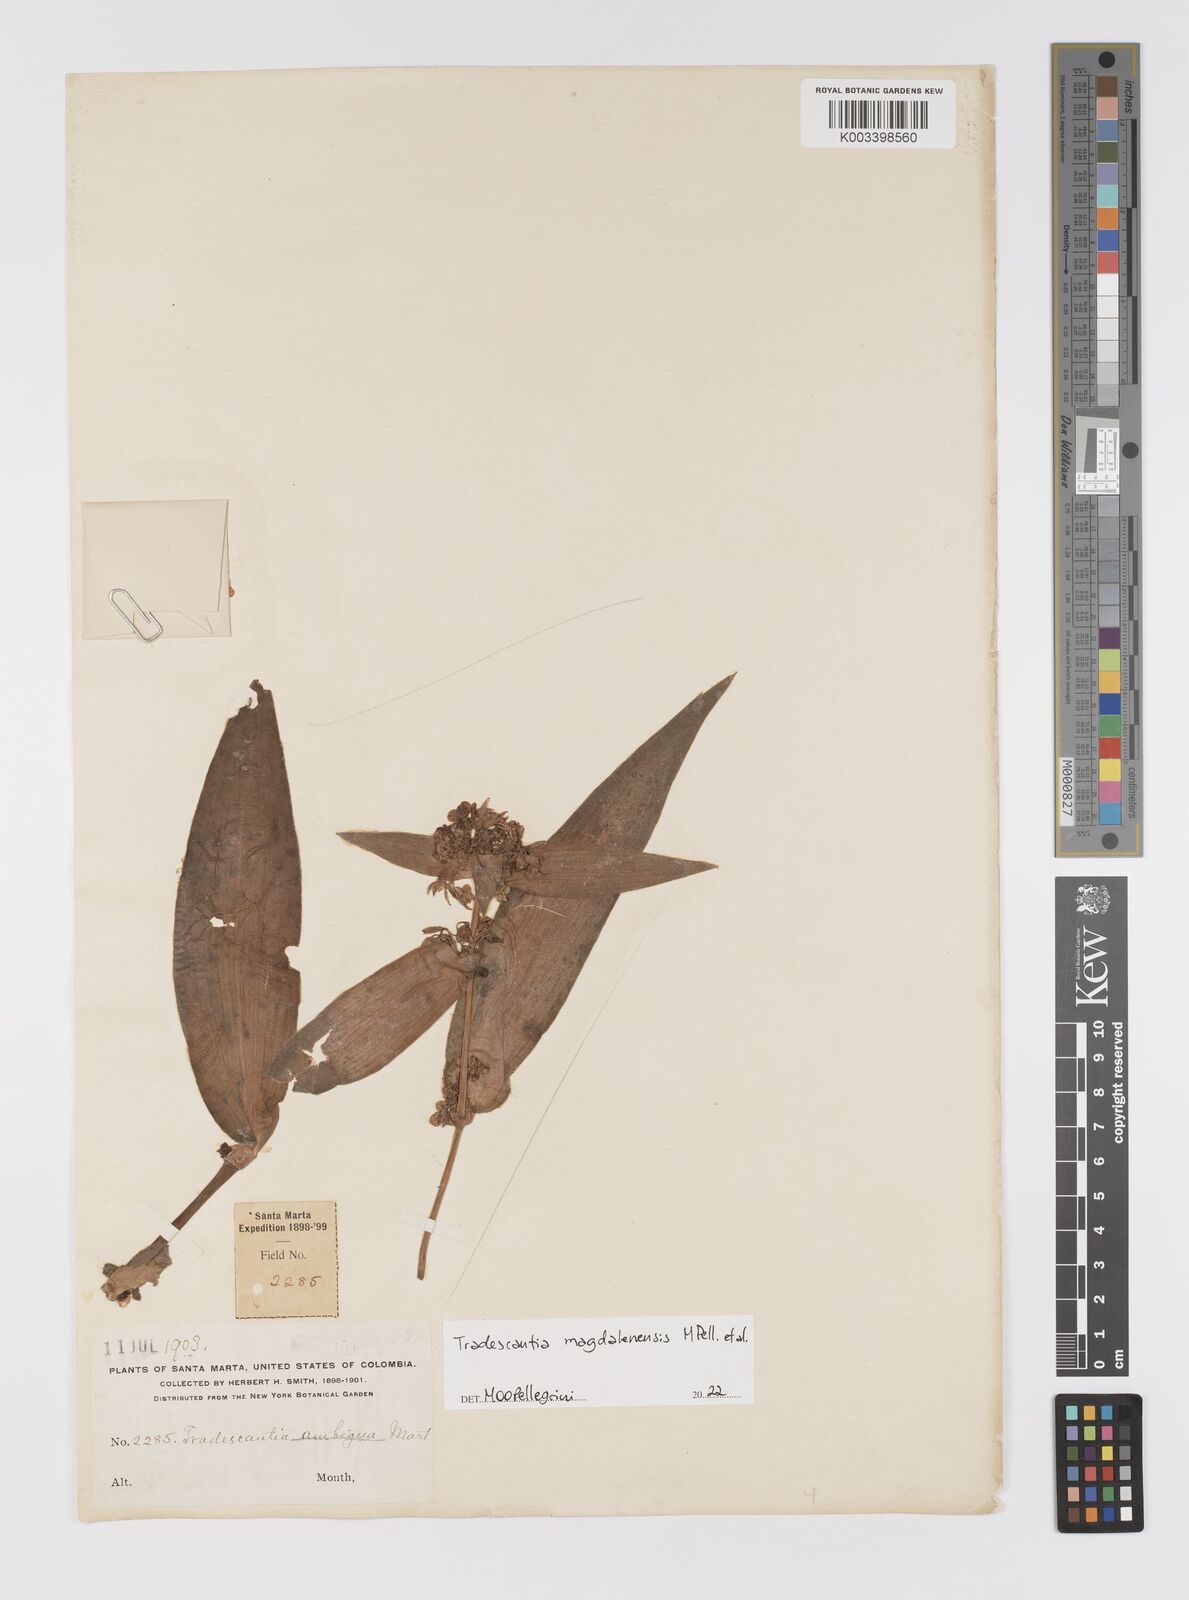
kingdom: Plantae
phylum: Tracheophyta
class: Liliopsida
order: Commelinales
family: Commelinaceae
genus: Tradescantia
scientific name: Tradescantia
